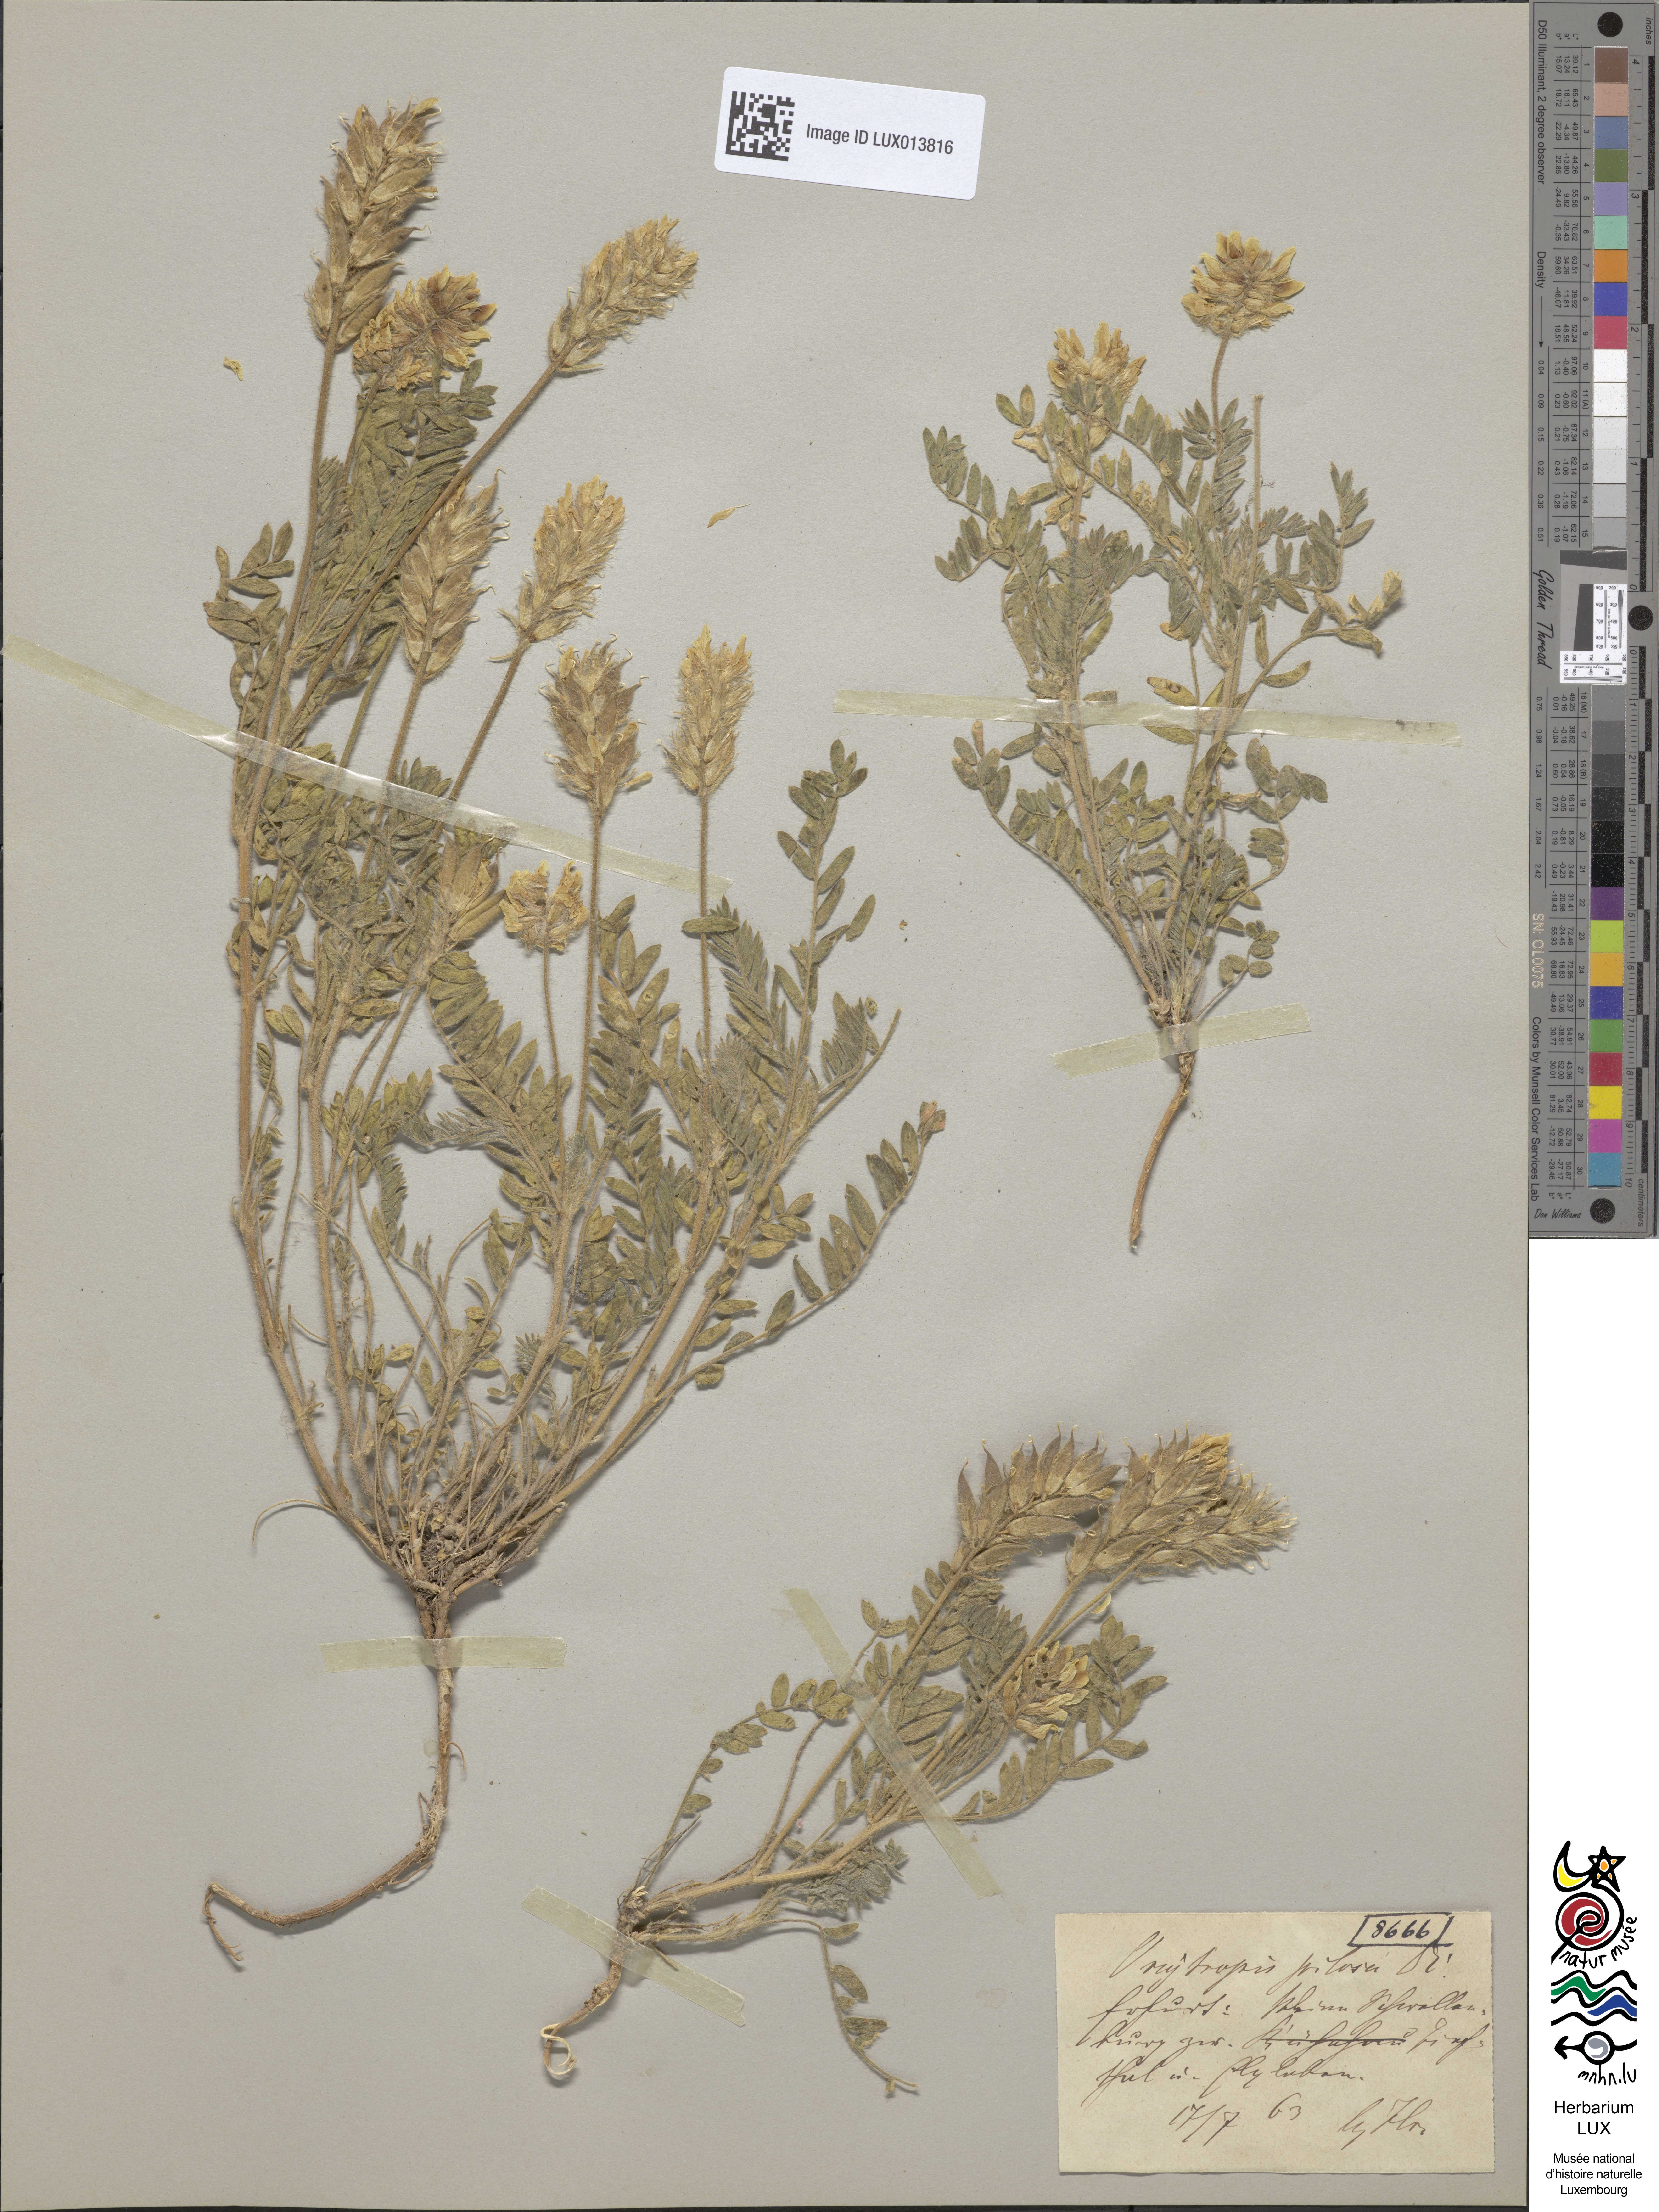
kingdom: Plantae
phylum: Tracheophyta
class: Magnoliopsida
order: Fabales
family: Fabaceae
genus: Oxytropis
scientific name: Oxytropis pilosa
